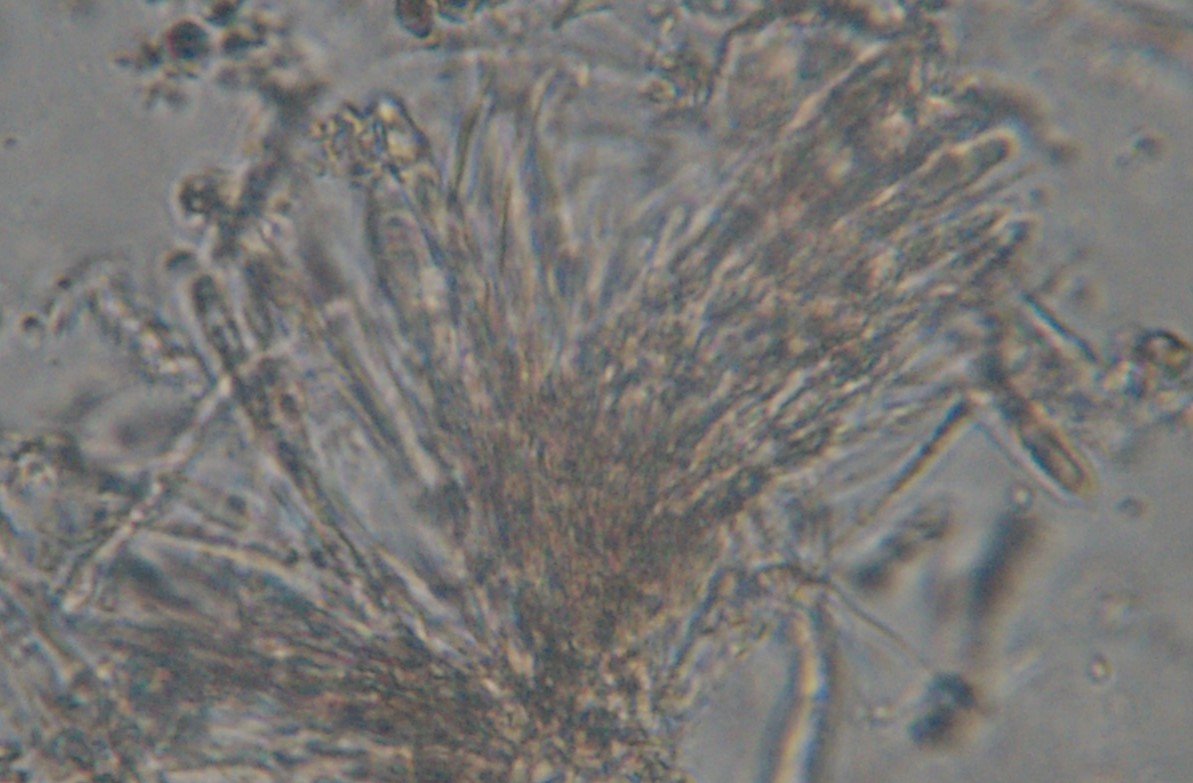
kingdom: Fungi
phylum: Ascomycota
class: Leotiomycetes
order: Helotiales
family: Helotiaceae
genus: Bisporella
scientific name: Bisporella
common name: snitskive
